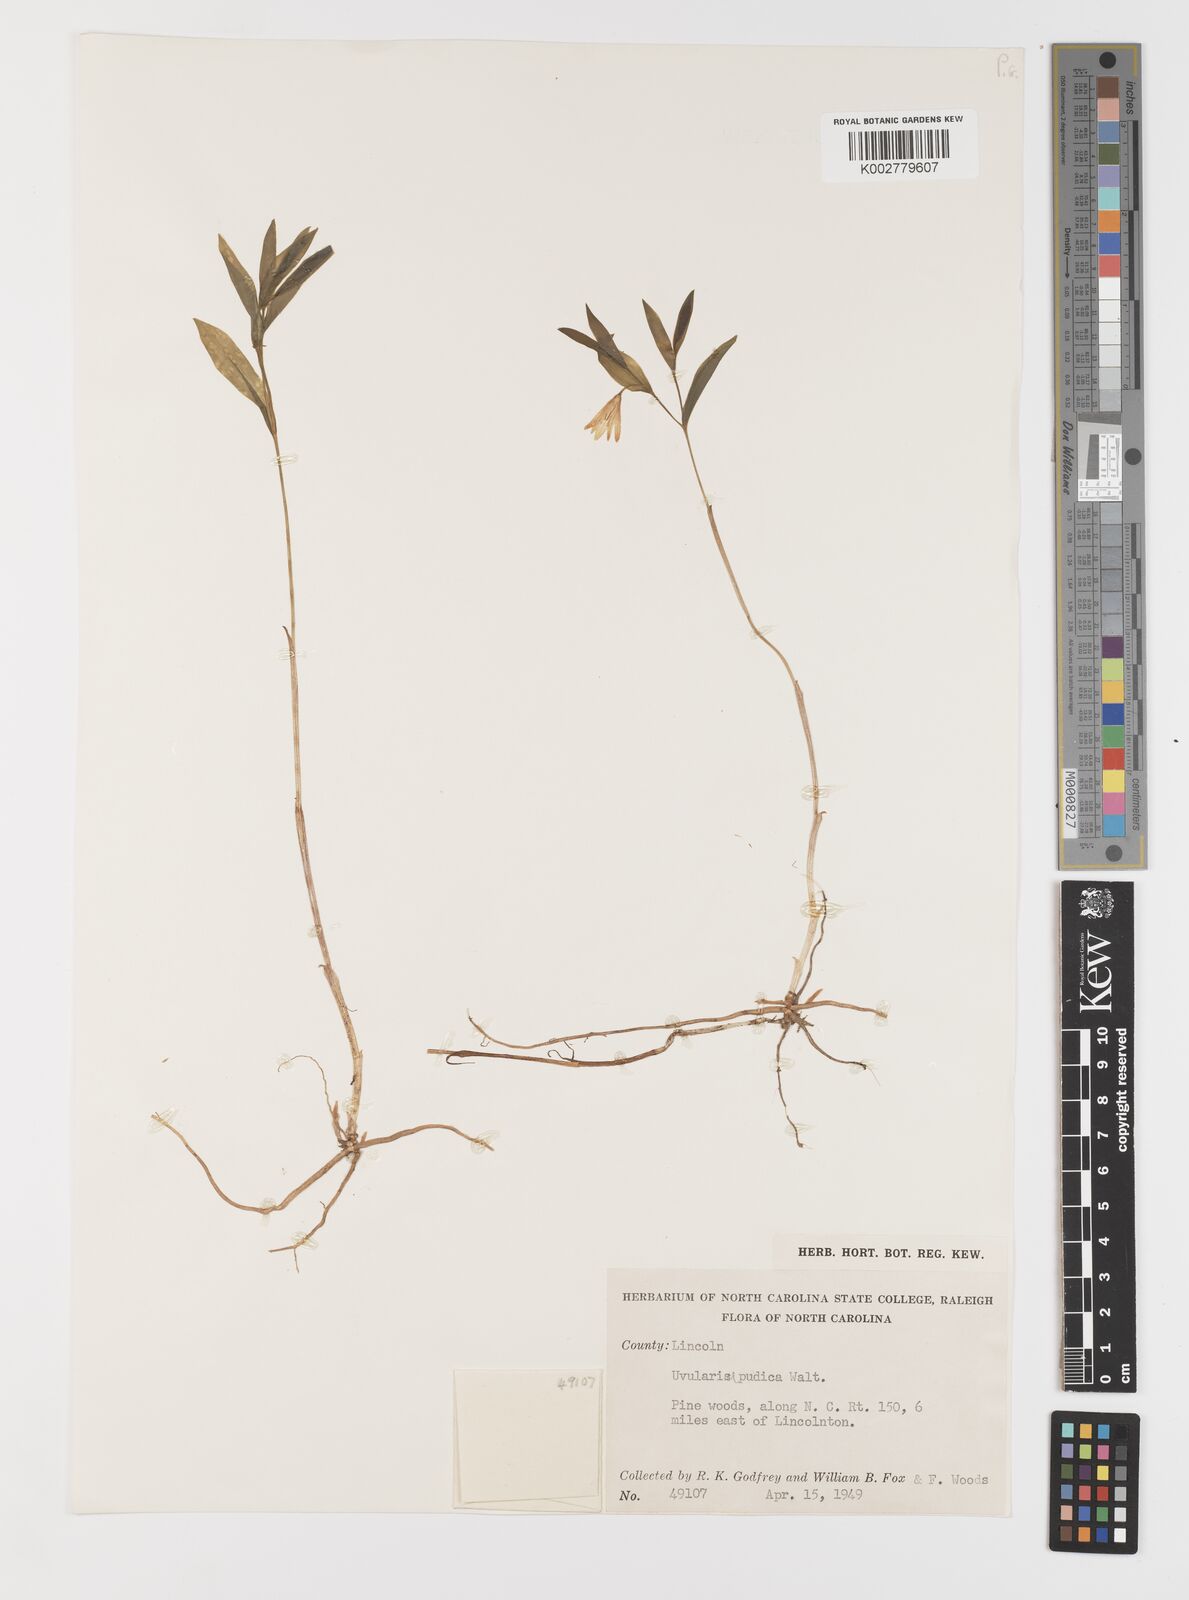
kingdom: Plantae
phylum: Tracheophyta
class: Liliopsida
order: Liliales
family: Colchicaceae
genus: Uvularia
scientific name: Uvularia perfoliata
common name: Perfoliate bellwort
